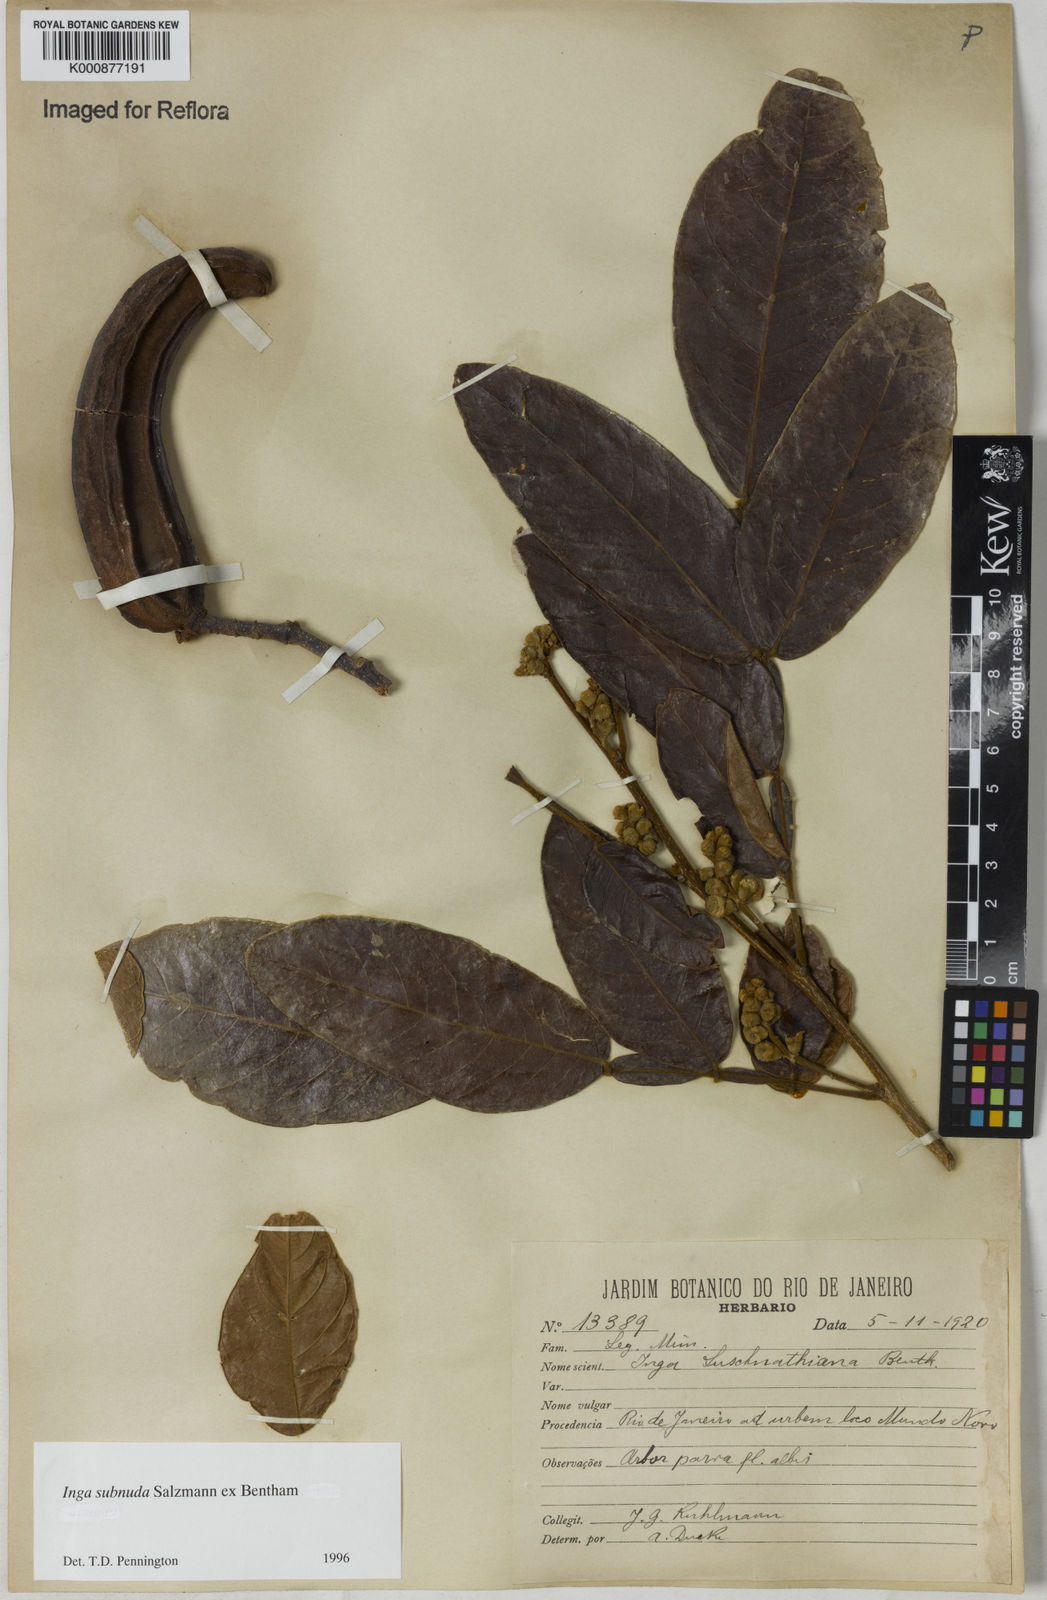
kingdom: Plantae
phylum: Tracheophyta
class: Magnoliopsida
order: Fabales
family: Fabaceae
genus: Inga
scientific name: Inga subnuda
